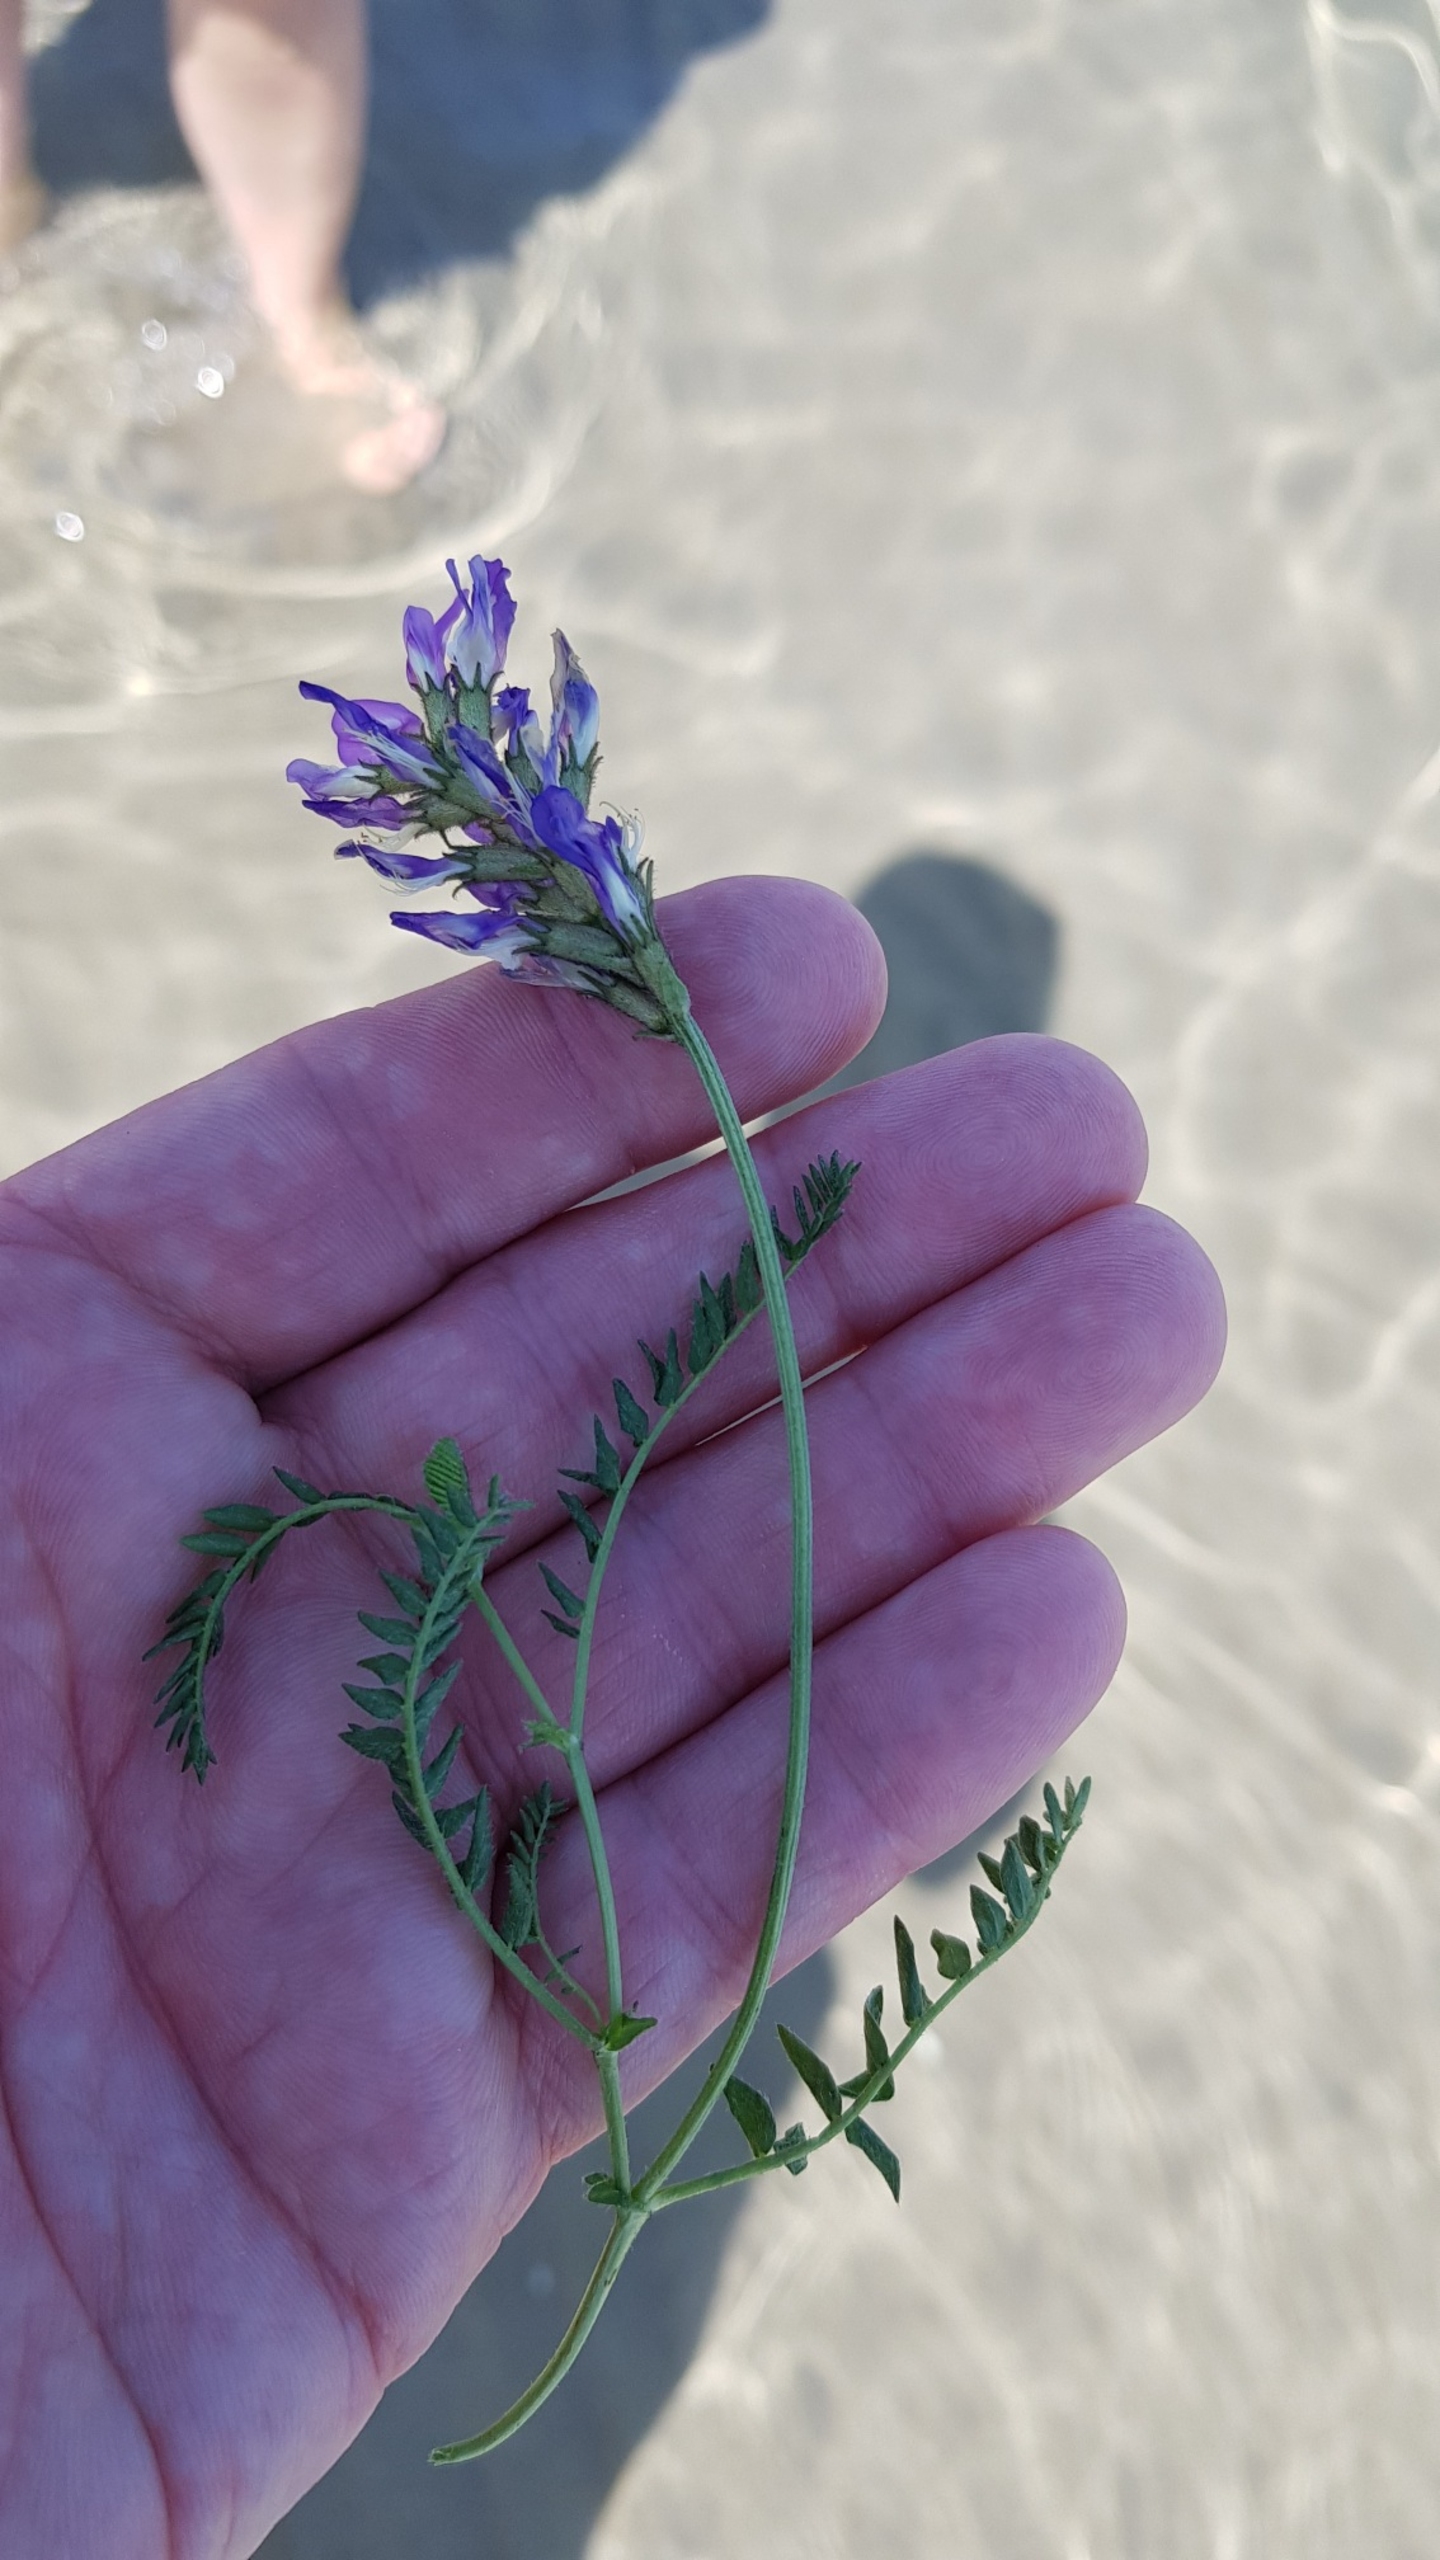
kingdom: Plantae
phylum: Tracheophyta
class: Magnoliopsida
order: Fabales
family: Fabaceae
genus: Astragalus
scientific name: Astragalus danicus
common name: Dansk astragel
